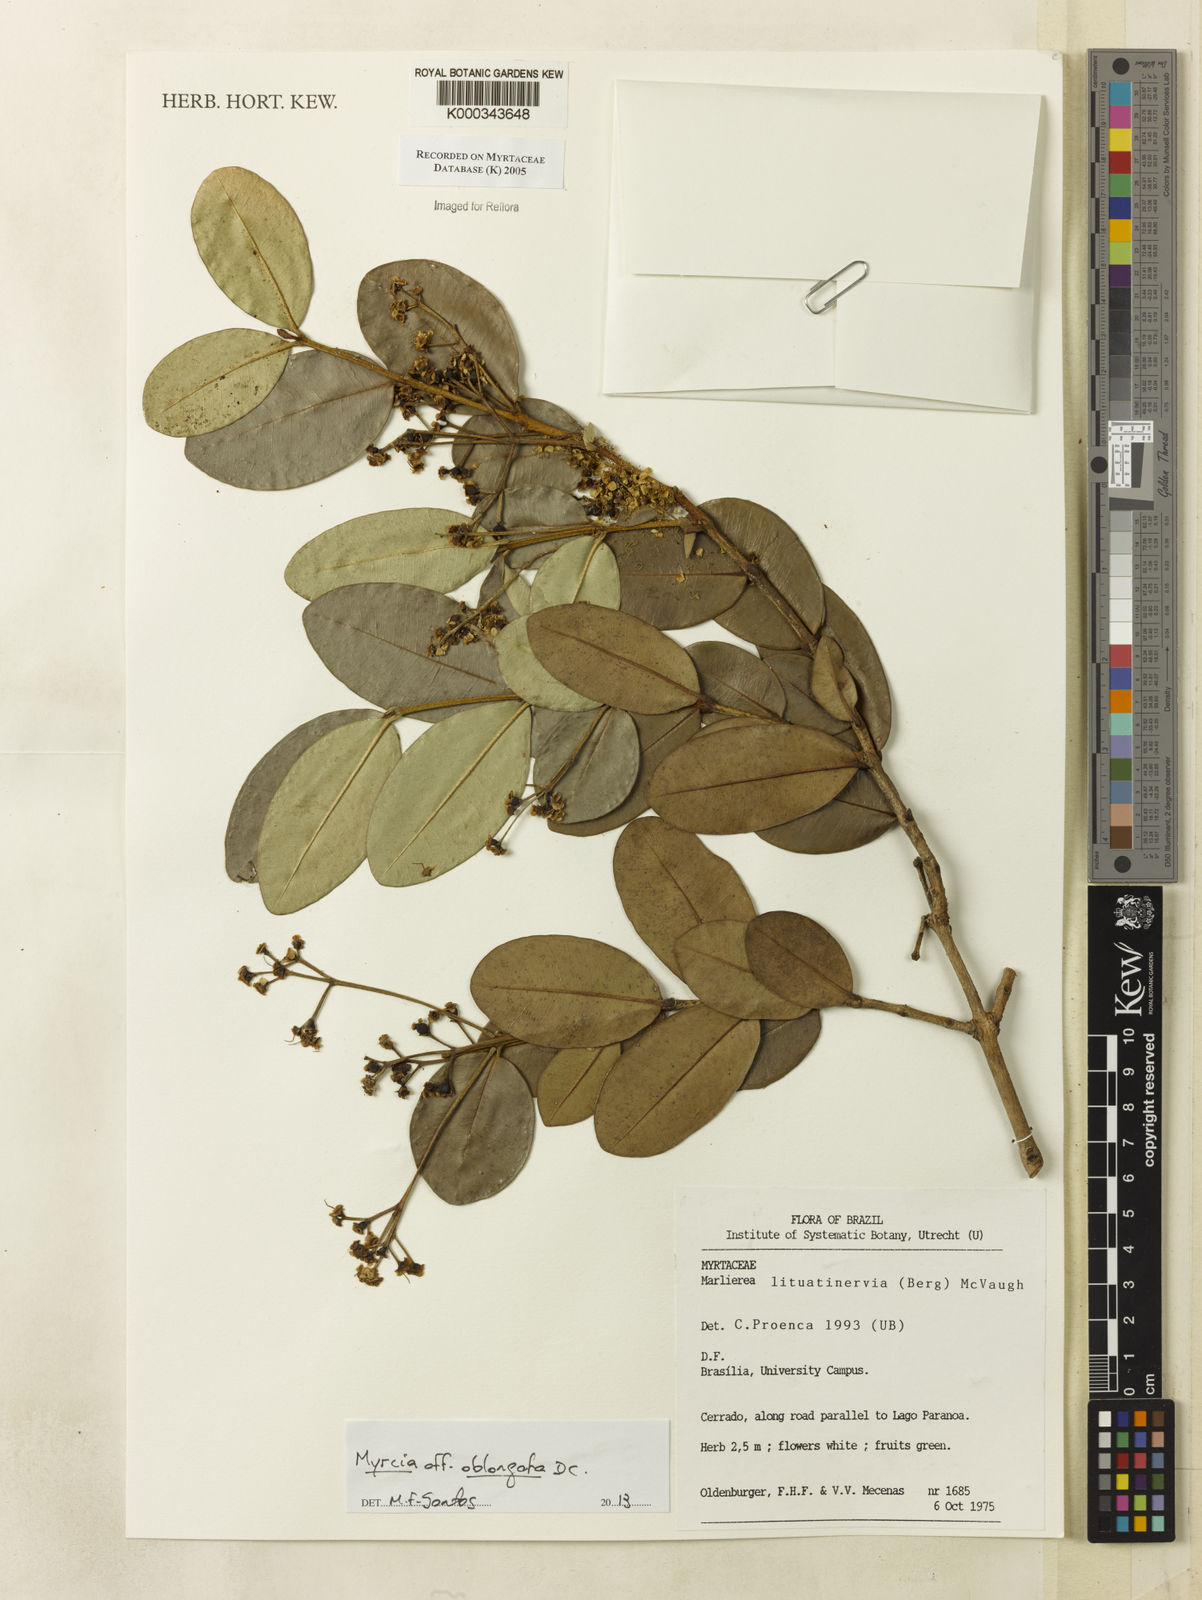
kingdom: Plantae
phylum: Tracheophyta
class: Magnoliopsida
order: Myrtales
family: Myrtaceae
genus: Myrcia
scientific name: Myrcia lituatinervia
